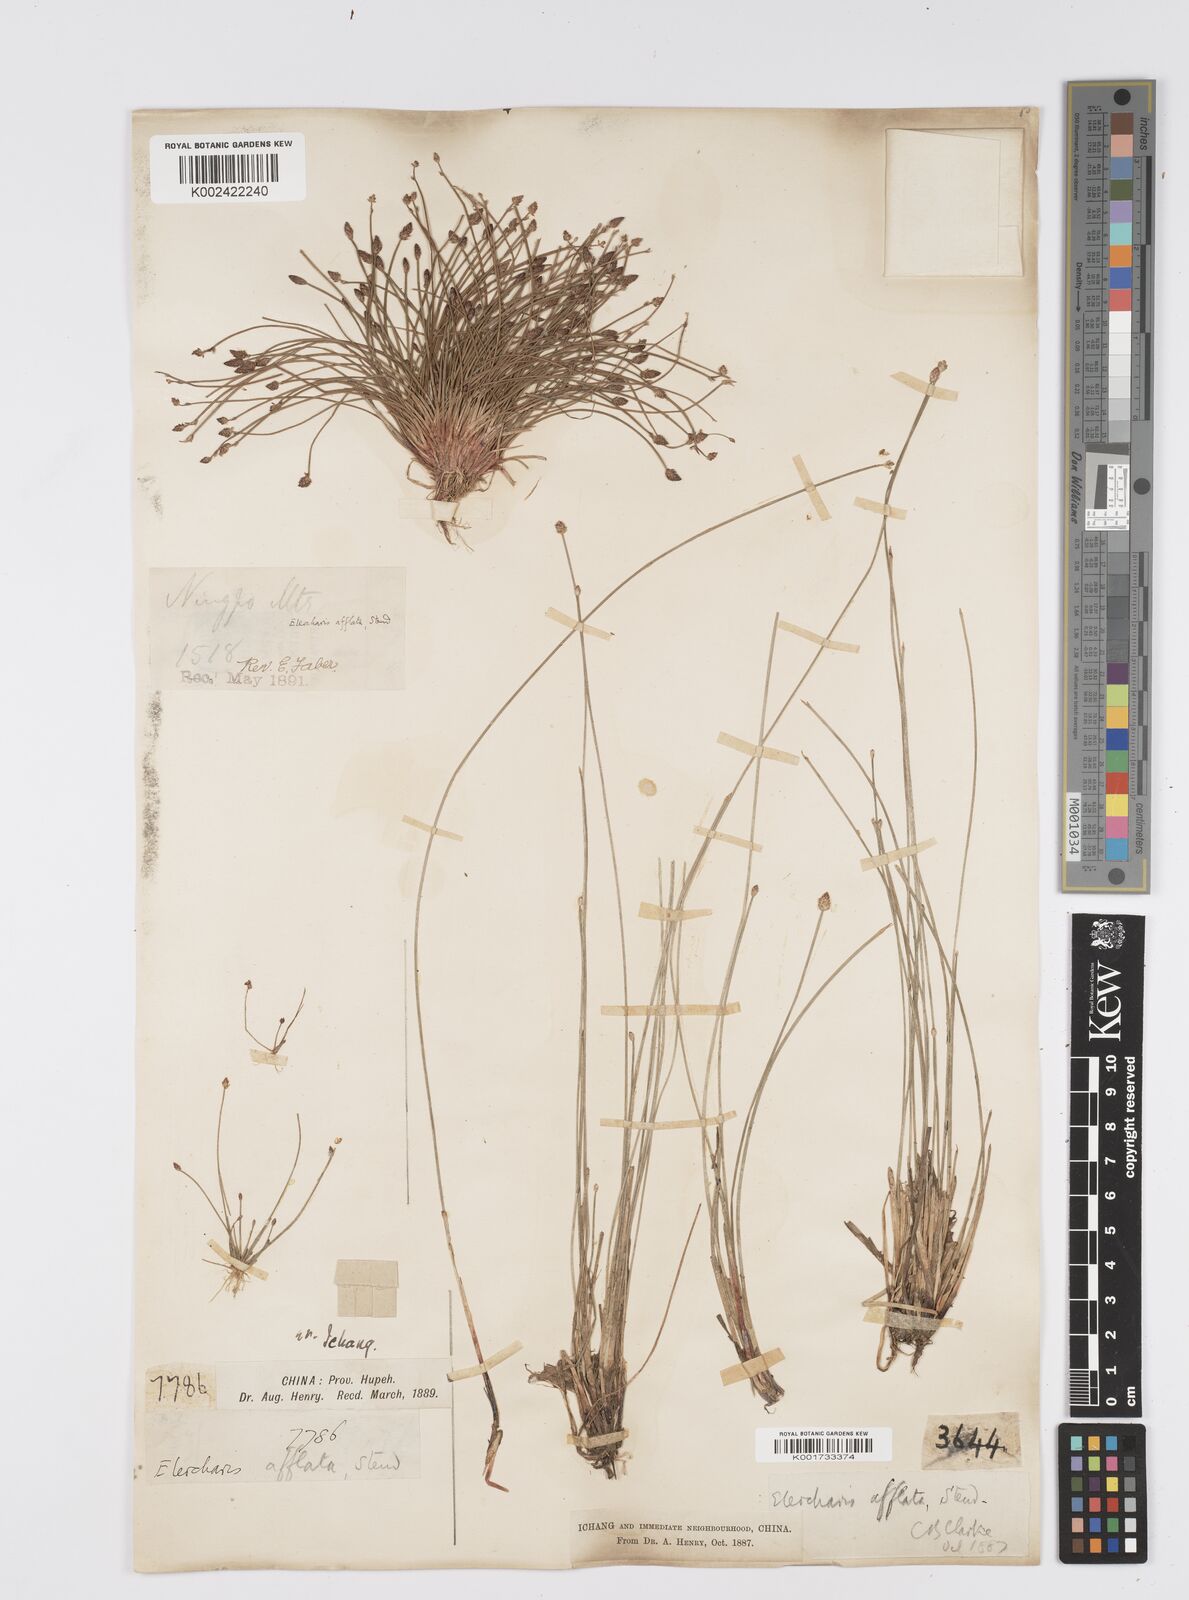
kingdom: Plantae
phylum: Tracheophyta
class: Liliopsida
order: Poales
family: Cyperaceae
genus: Eleocharis
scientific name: Eleocharis pellucida
